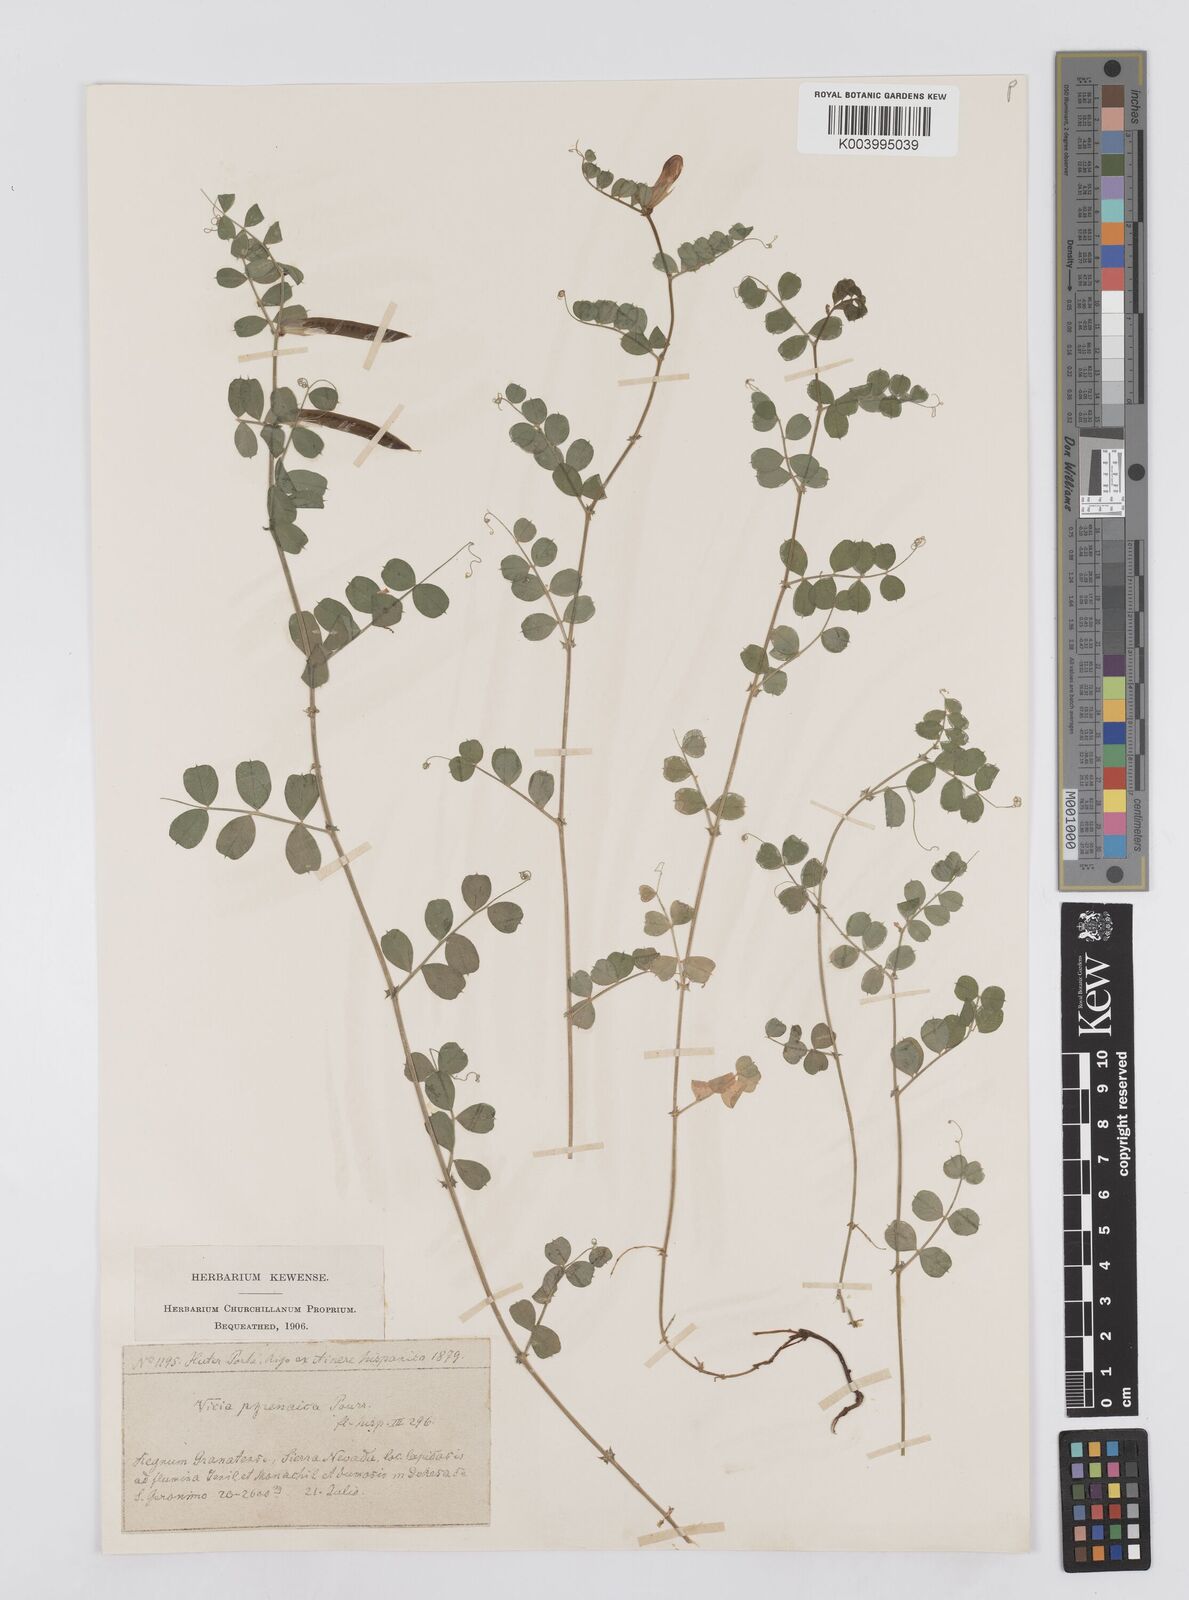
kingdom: Plantae
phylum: Tracheophyta
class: Magnoliopsida
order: Fabales
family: Fabaceae
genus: Vicia
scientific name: Vicia pyrenaica
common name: Pyrenean vetch
